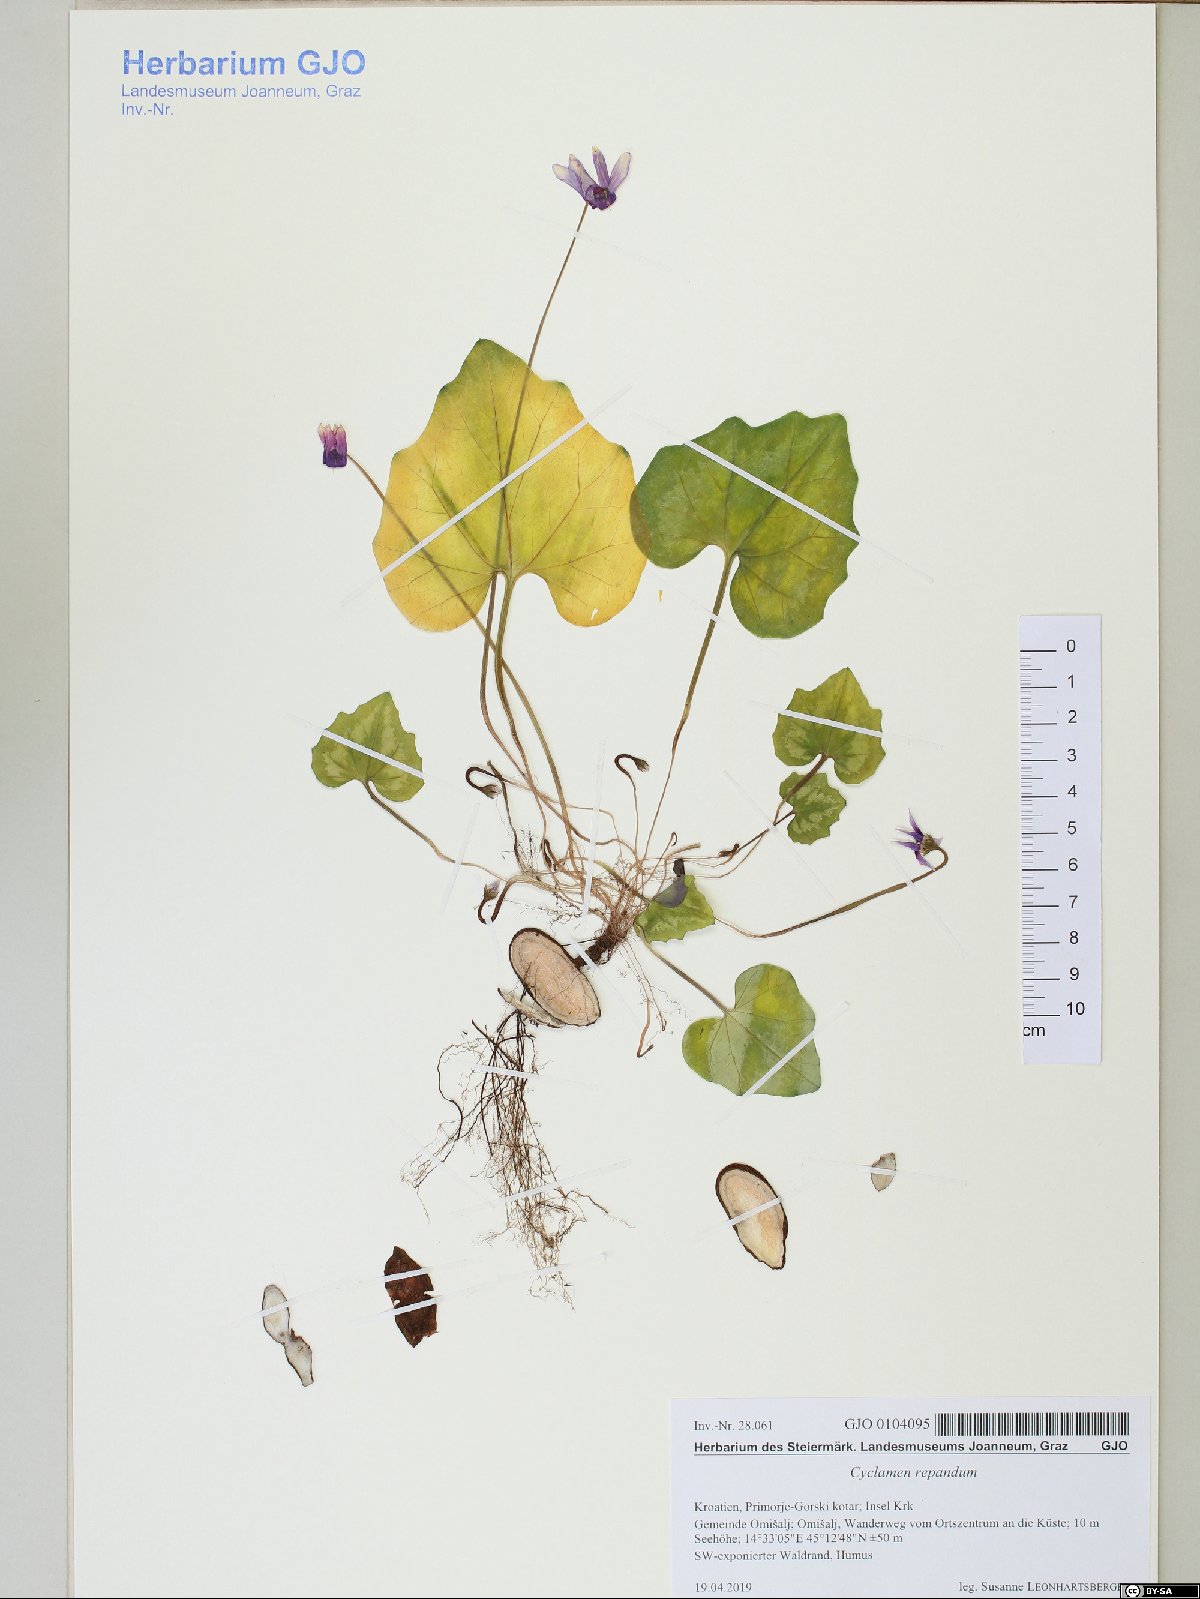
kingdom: Plantae
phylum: Tracheophyta
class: Magnoliopsida
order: Ericales
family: Primulaceae
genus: Cyclamen
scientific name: Cyclamen repandum
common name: Spring sowbread
